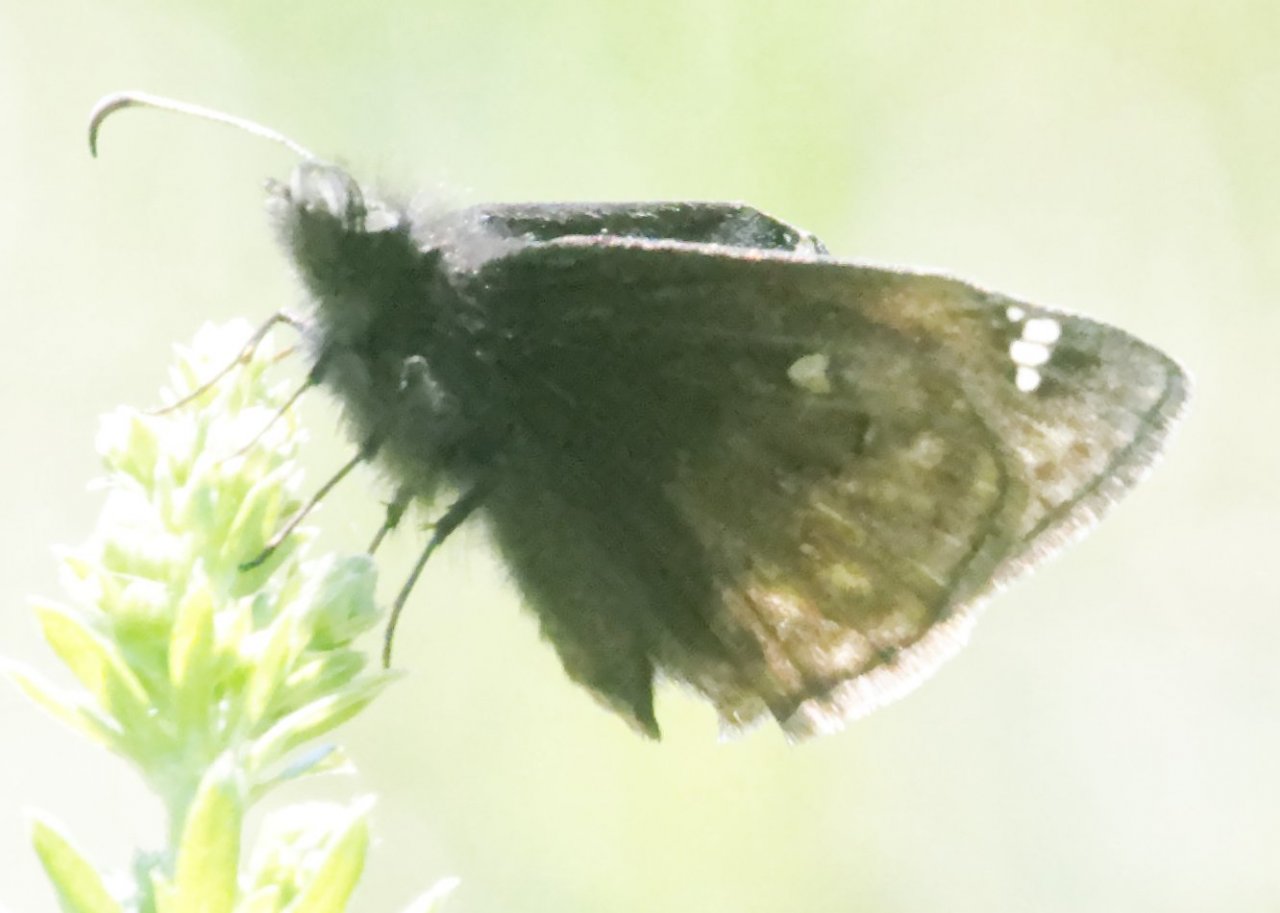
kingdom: Animalia
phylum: Arthropoda
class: Insecta
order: Lepidoptera
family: Hesperiidae
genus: Gesta
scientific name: Gesta
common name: Wild Indigo Duskywing
